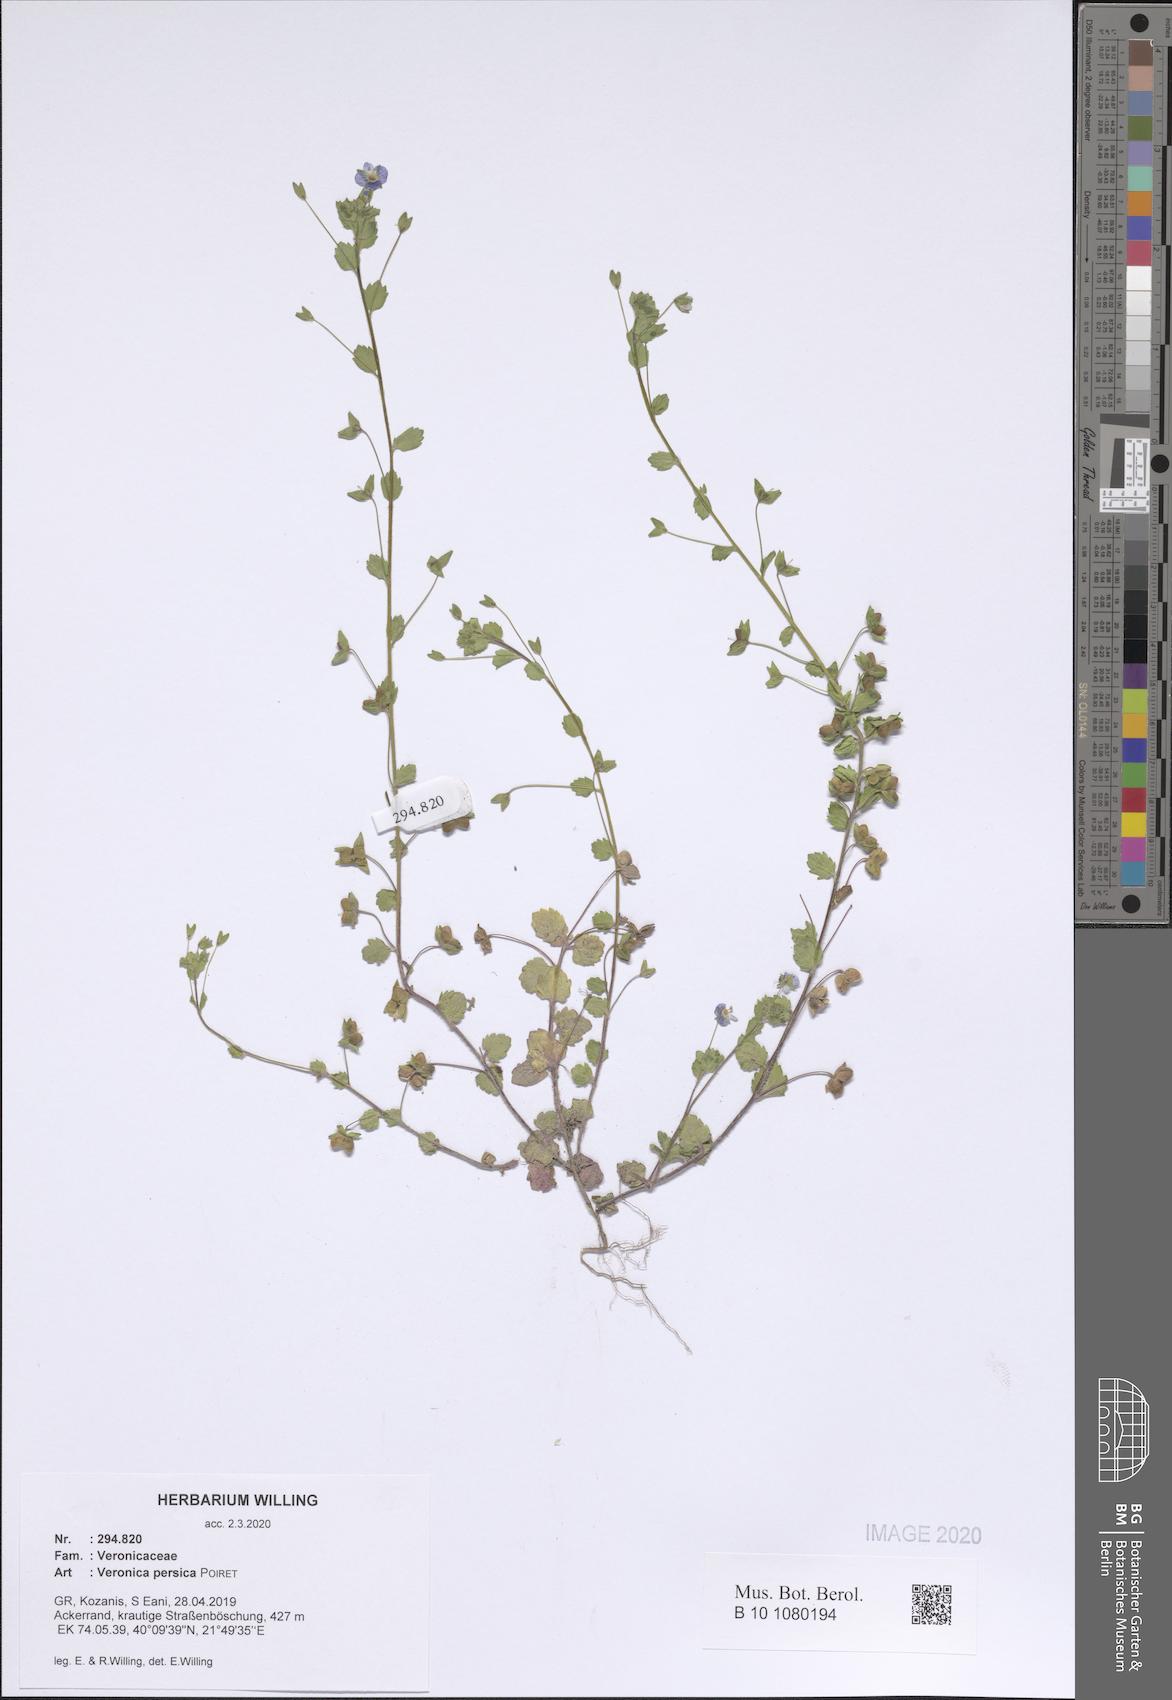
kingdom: Plantae
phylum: Tracheophyta
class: Magnoliopsida
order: Lamiales
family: Plantaginaceae
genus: Veronica
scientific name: Veronica persica
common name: Common field-speedwell
